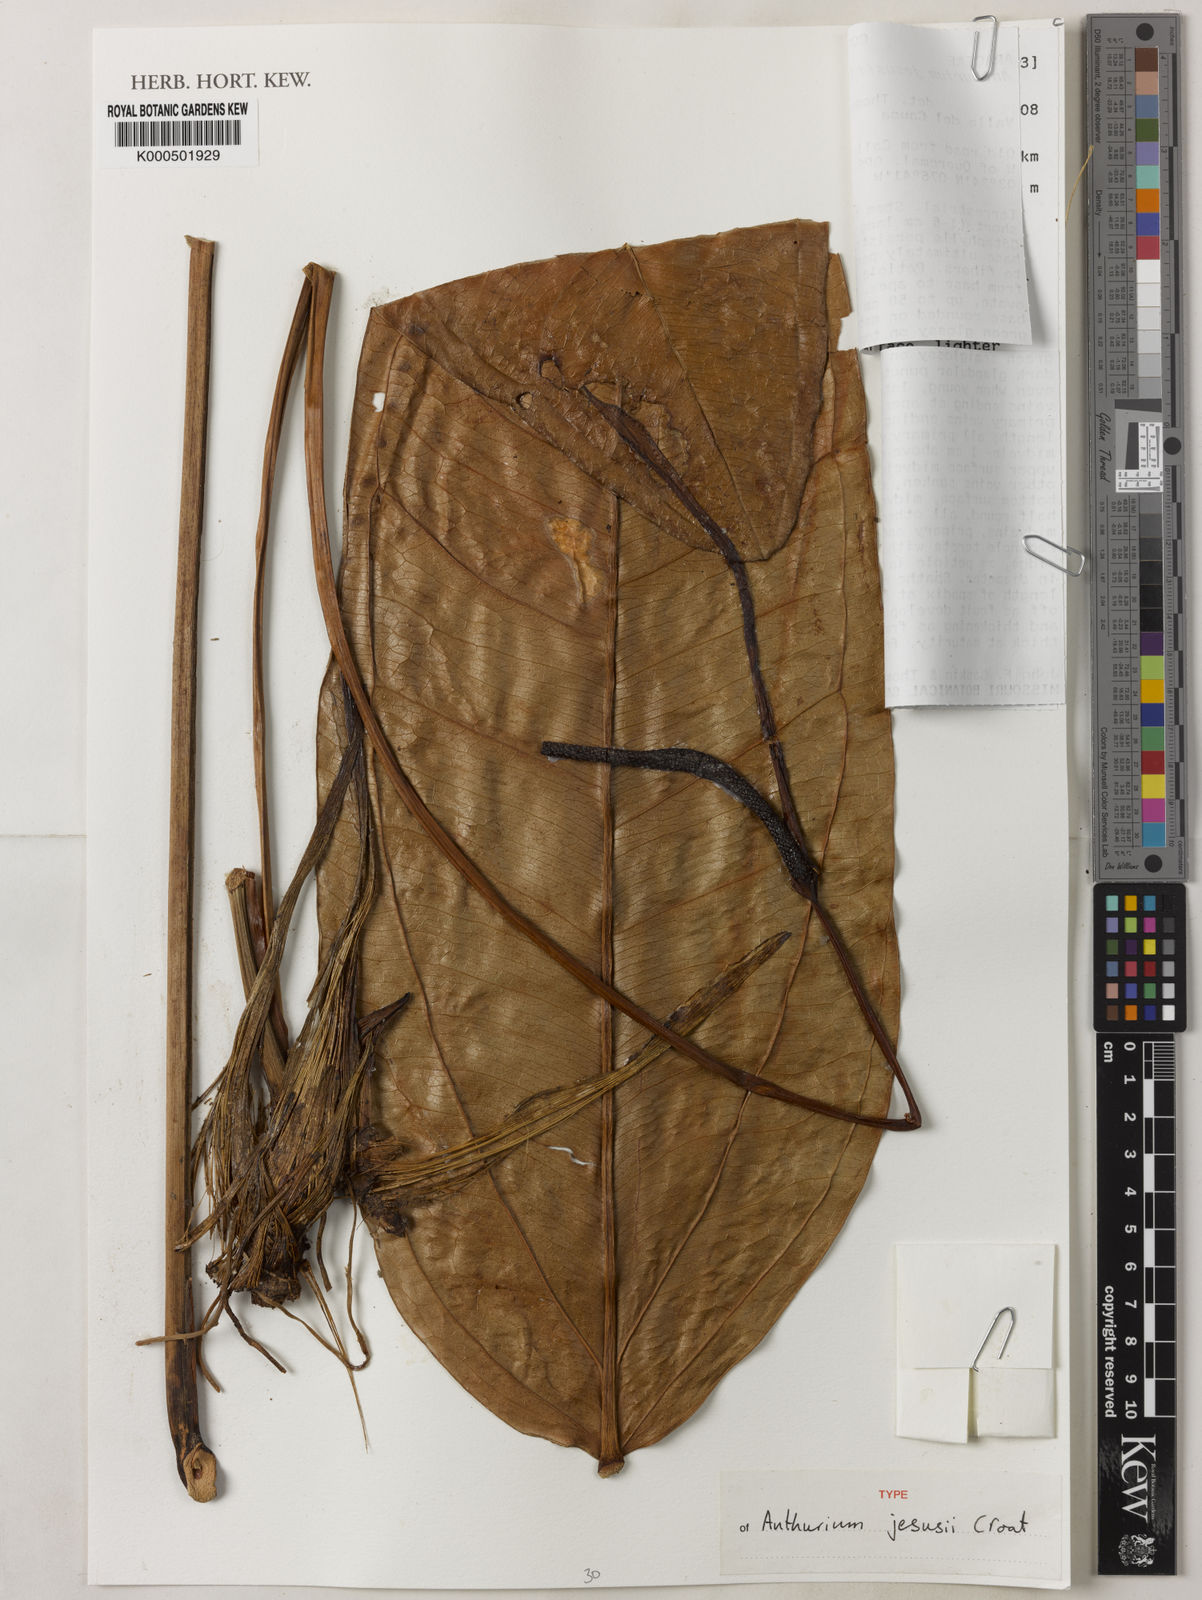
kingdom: Plantae
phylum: Tracheophyta
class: Liliopsida
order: Alismatales
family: Araceae
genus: Anthurium
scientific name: Anthurium jesusii
